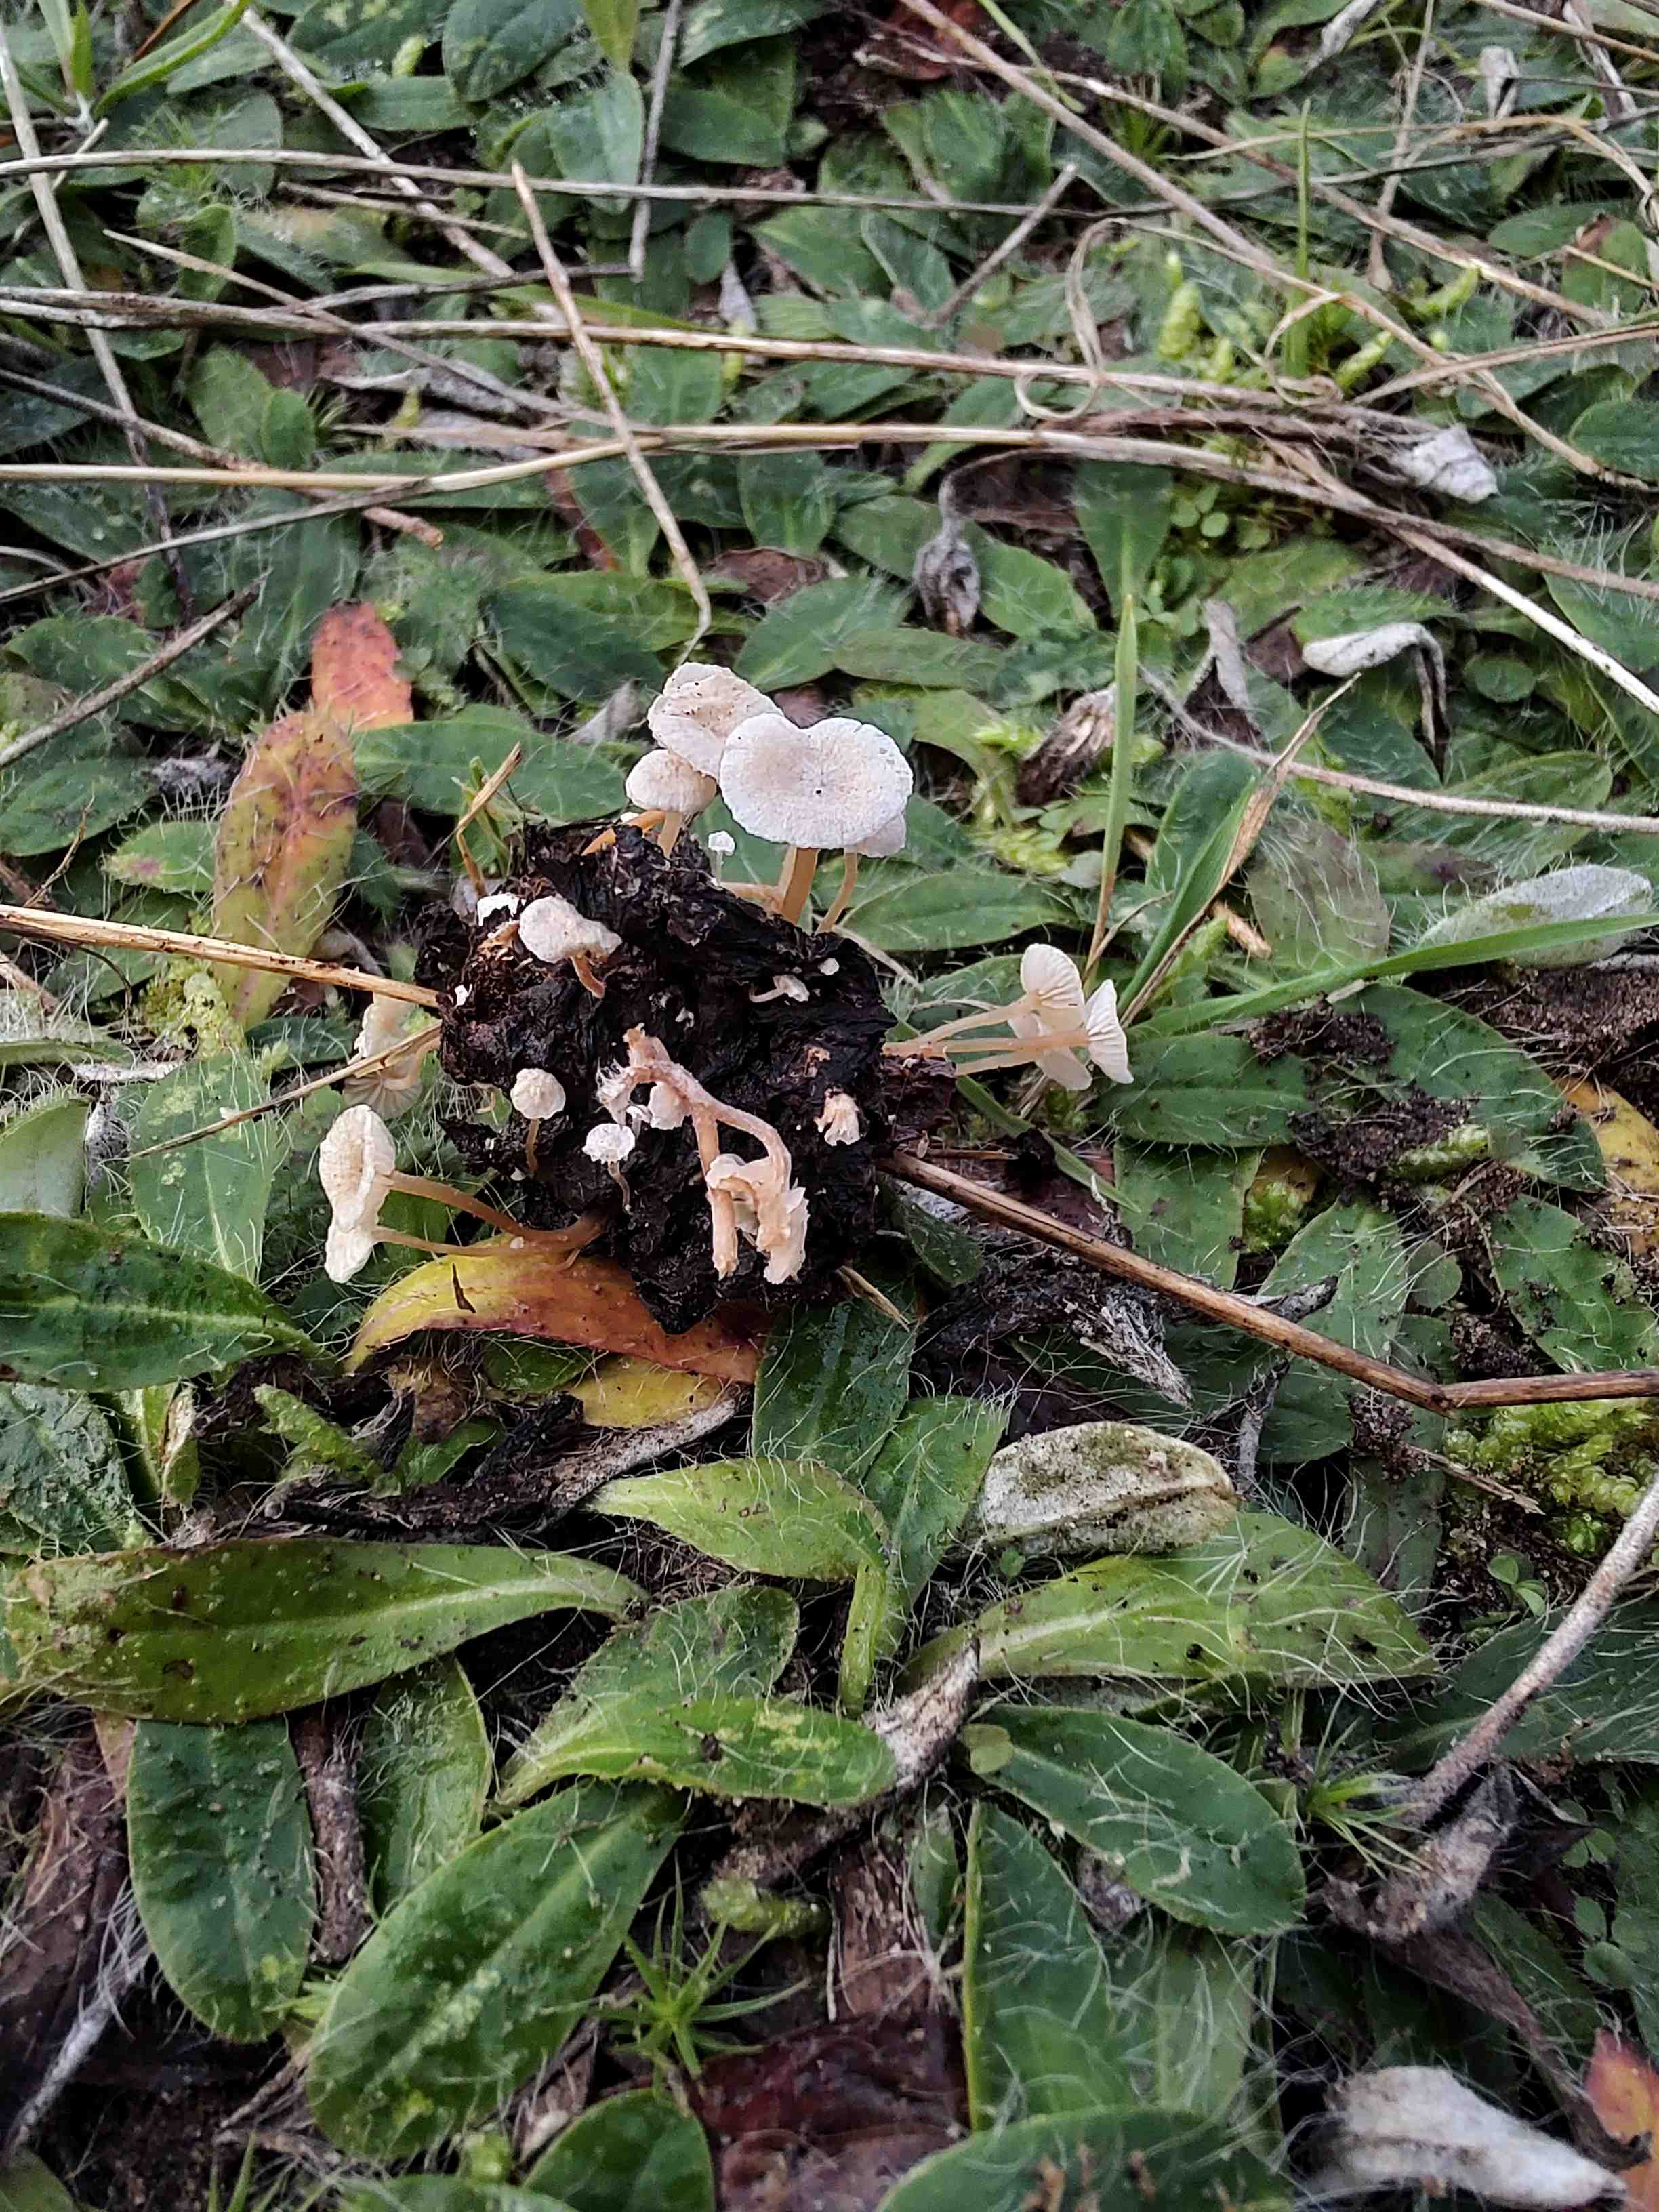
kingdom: Fungi
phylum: Basidiomycota
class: Agaricomycetes
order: Agaricales
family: Tricholomataceae
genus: Collybia
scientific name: Collybia cirrhata
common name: silke-lighat
